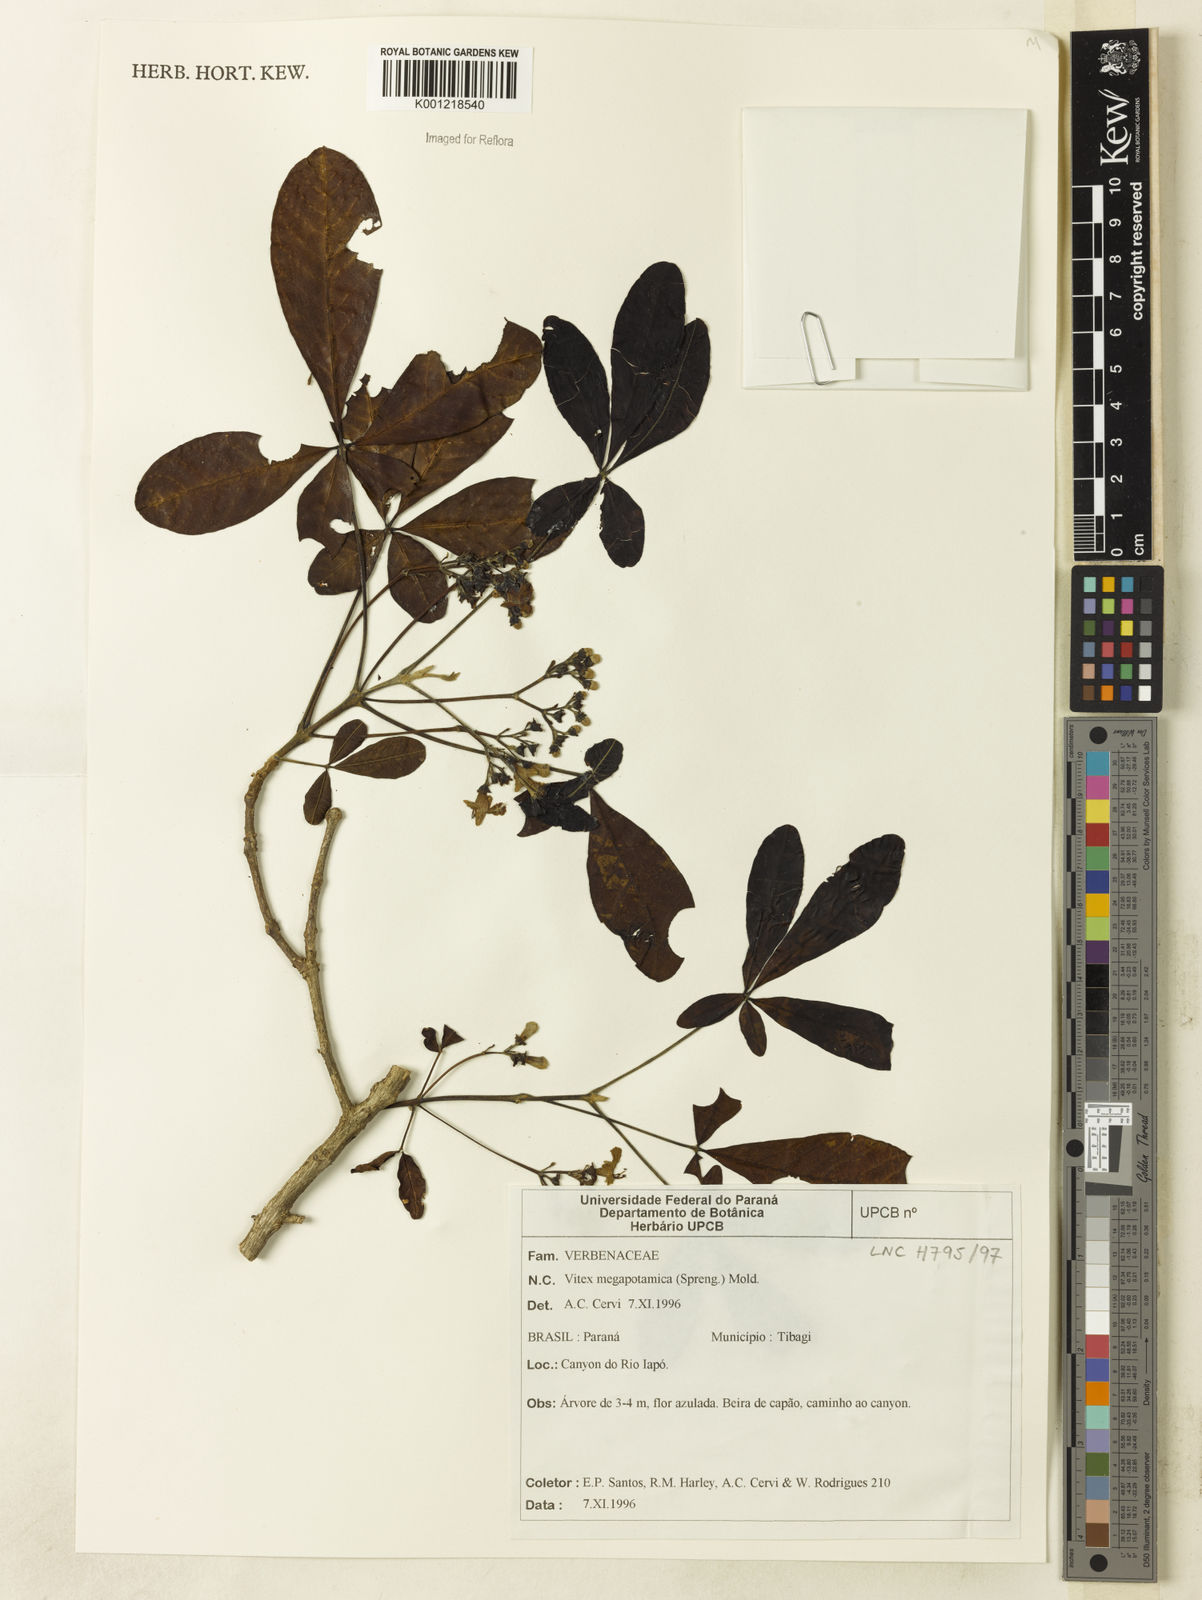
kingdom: Plantae
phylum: Tracheophyta
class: Magnoliopsida
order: Lamiales
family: Lamiaceae
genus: Vitex
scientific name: Vitex megapotamica
